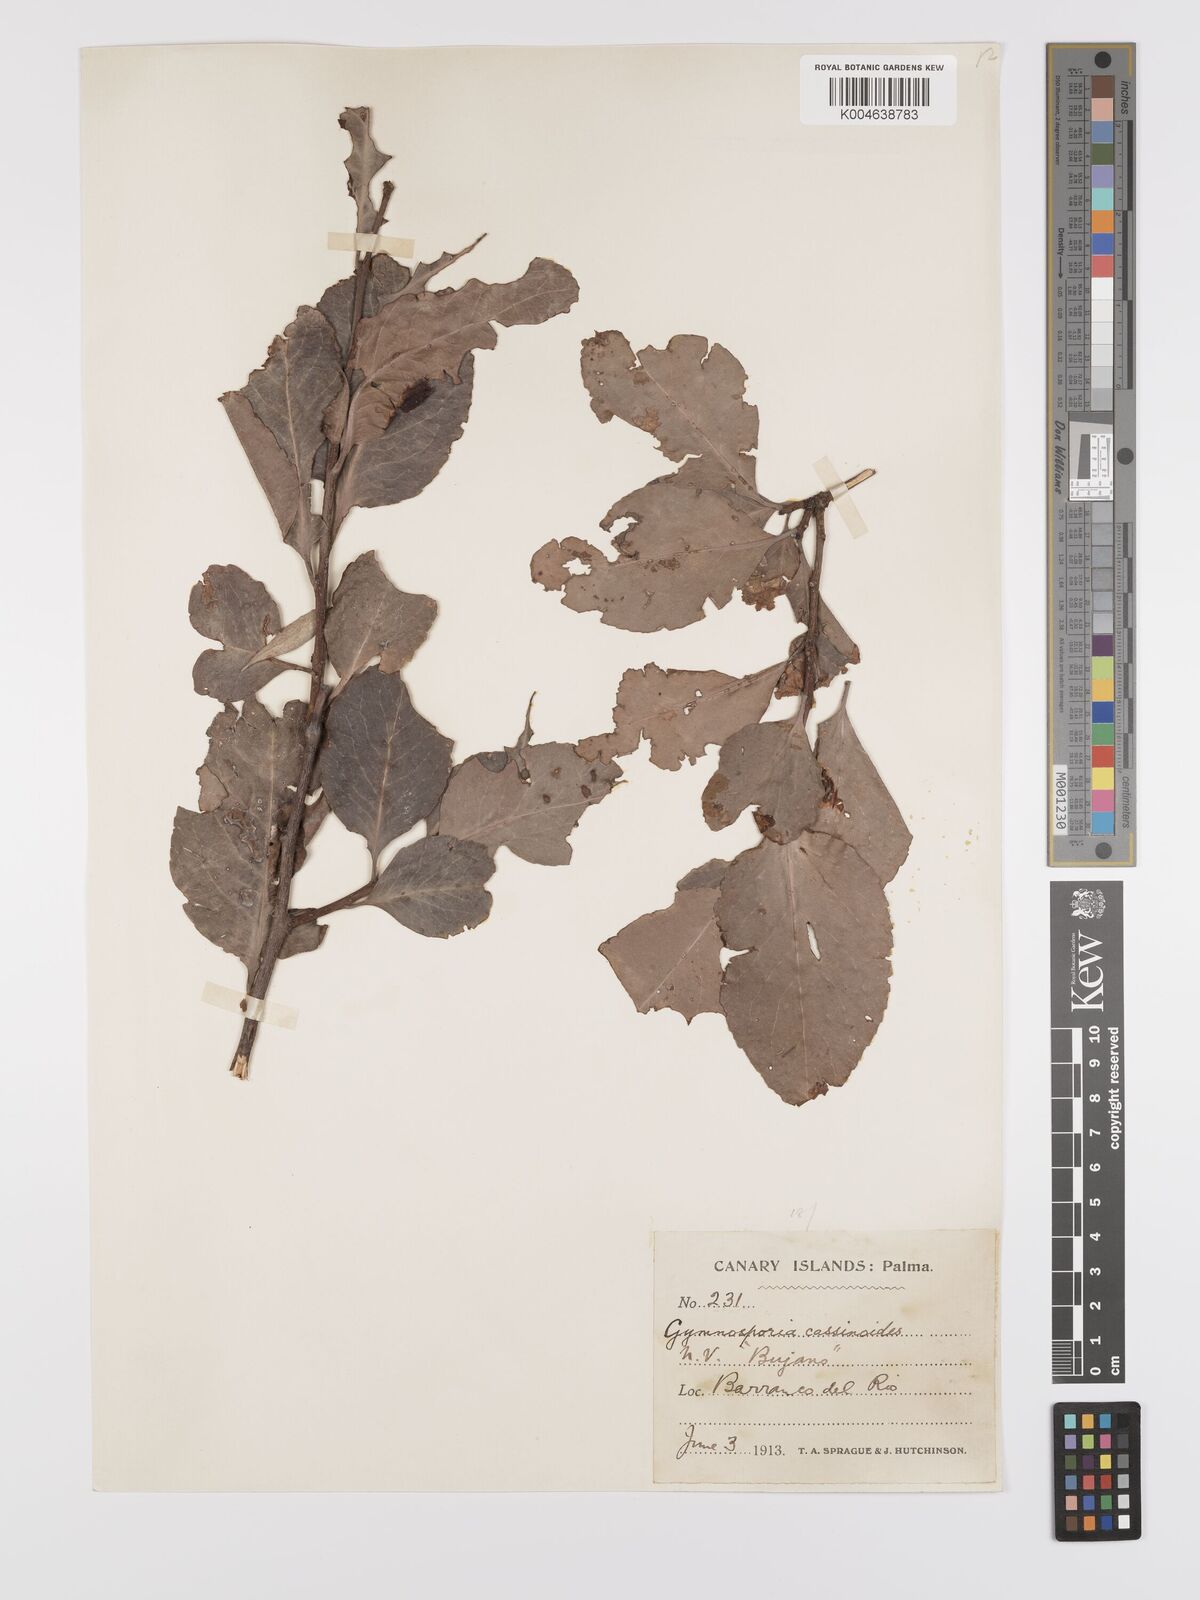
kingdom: Plantae
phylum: Tracheophyta
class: Magnoliopsida
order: Celastrales
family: Celastraceae
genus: Gymnosporia
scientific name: Gymnosporia cassinoides
